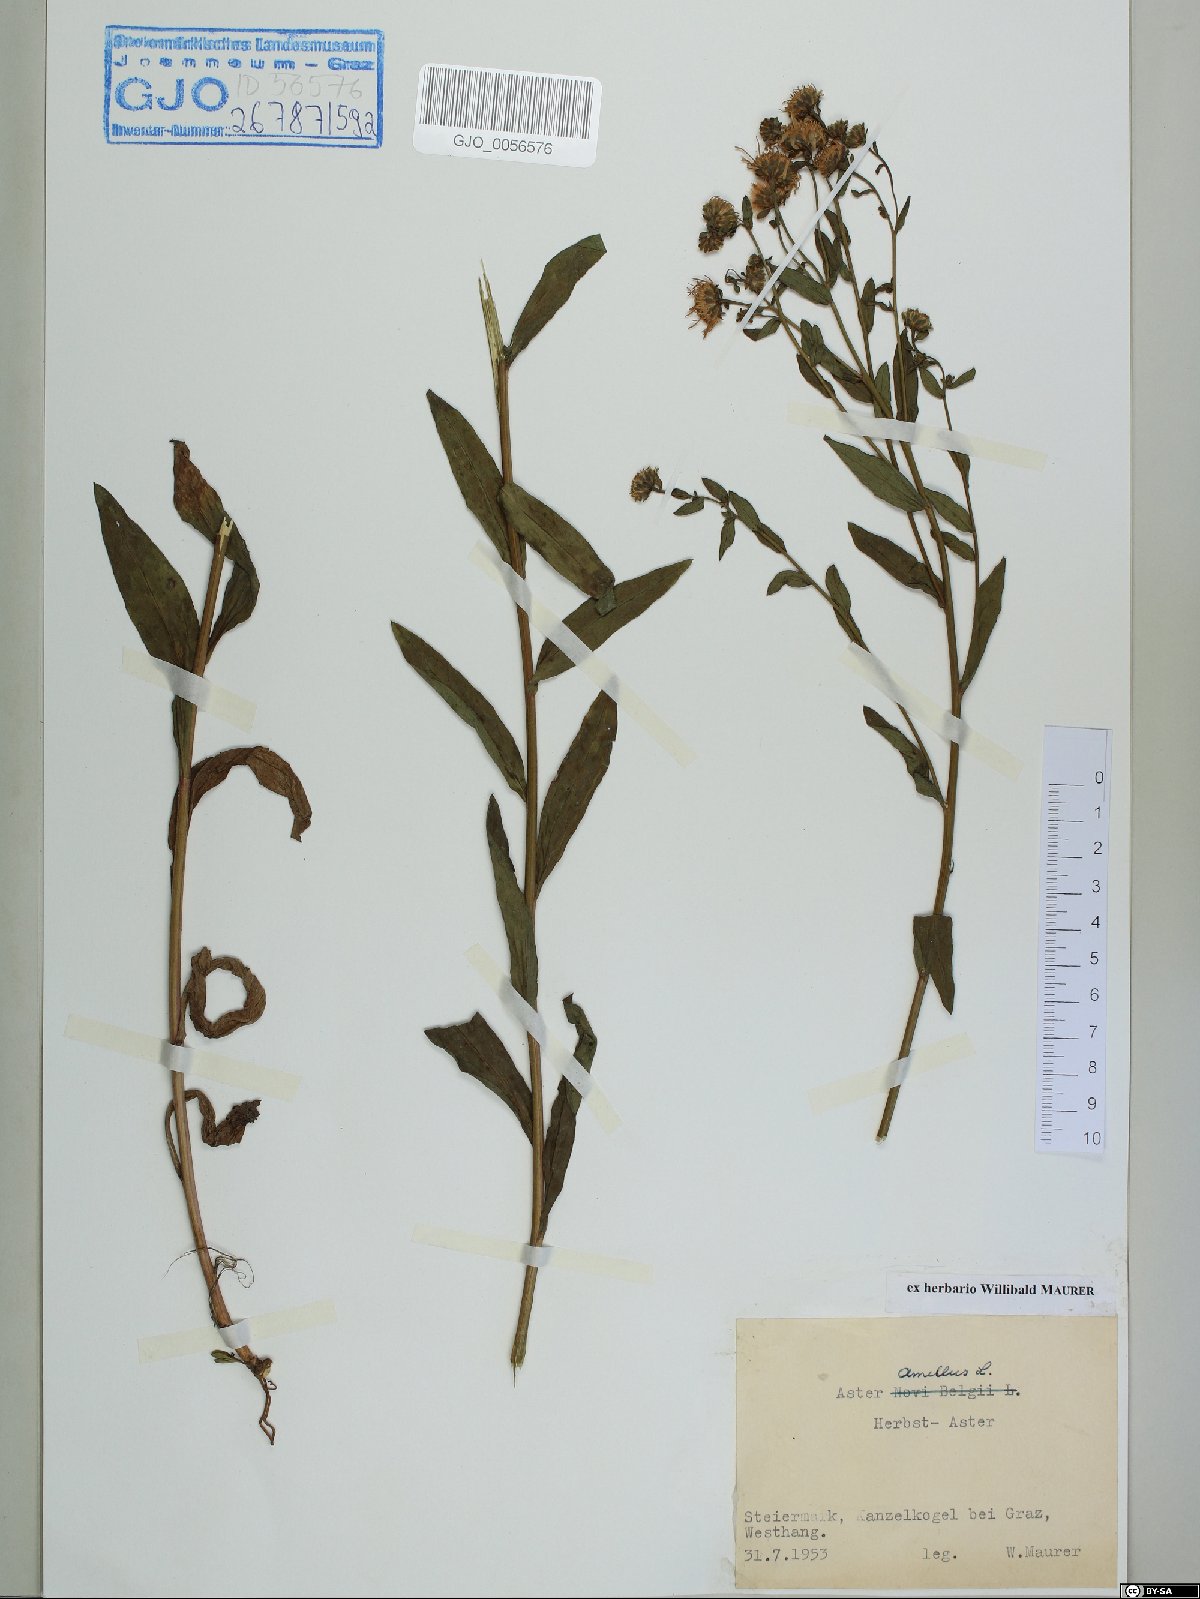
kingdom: Plantae
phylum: Tracheophyta
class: Magnoliopsida
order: Asterales
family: Asteraceae
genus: Aster
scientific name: Aster amellus
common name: European michaelmas daisy
